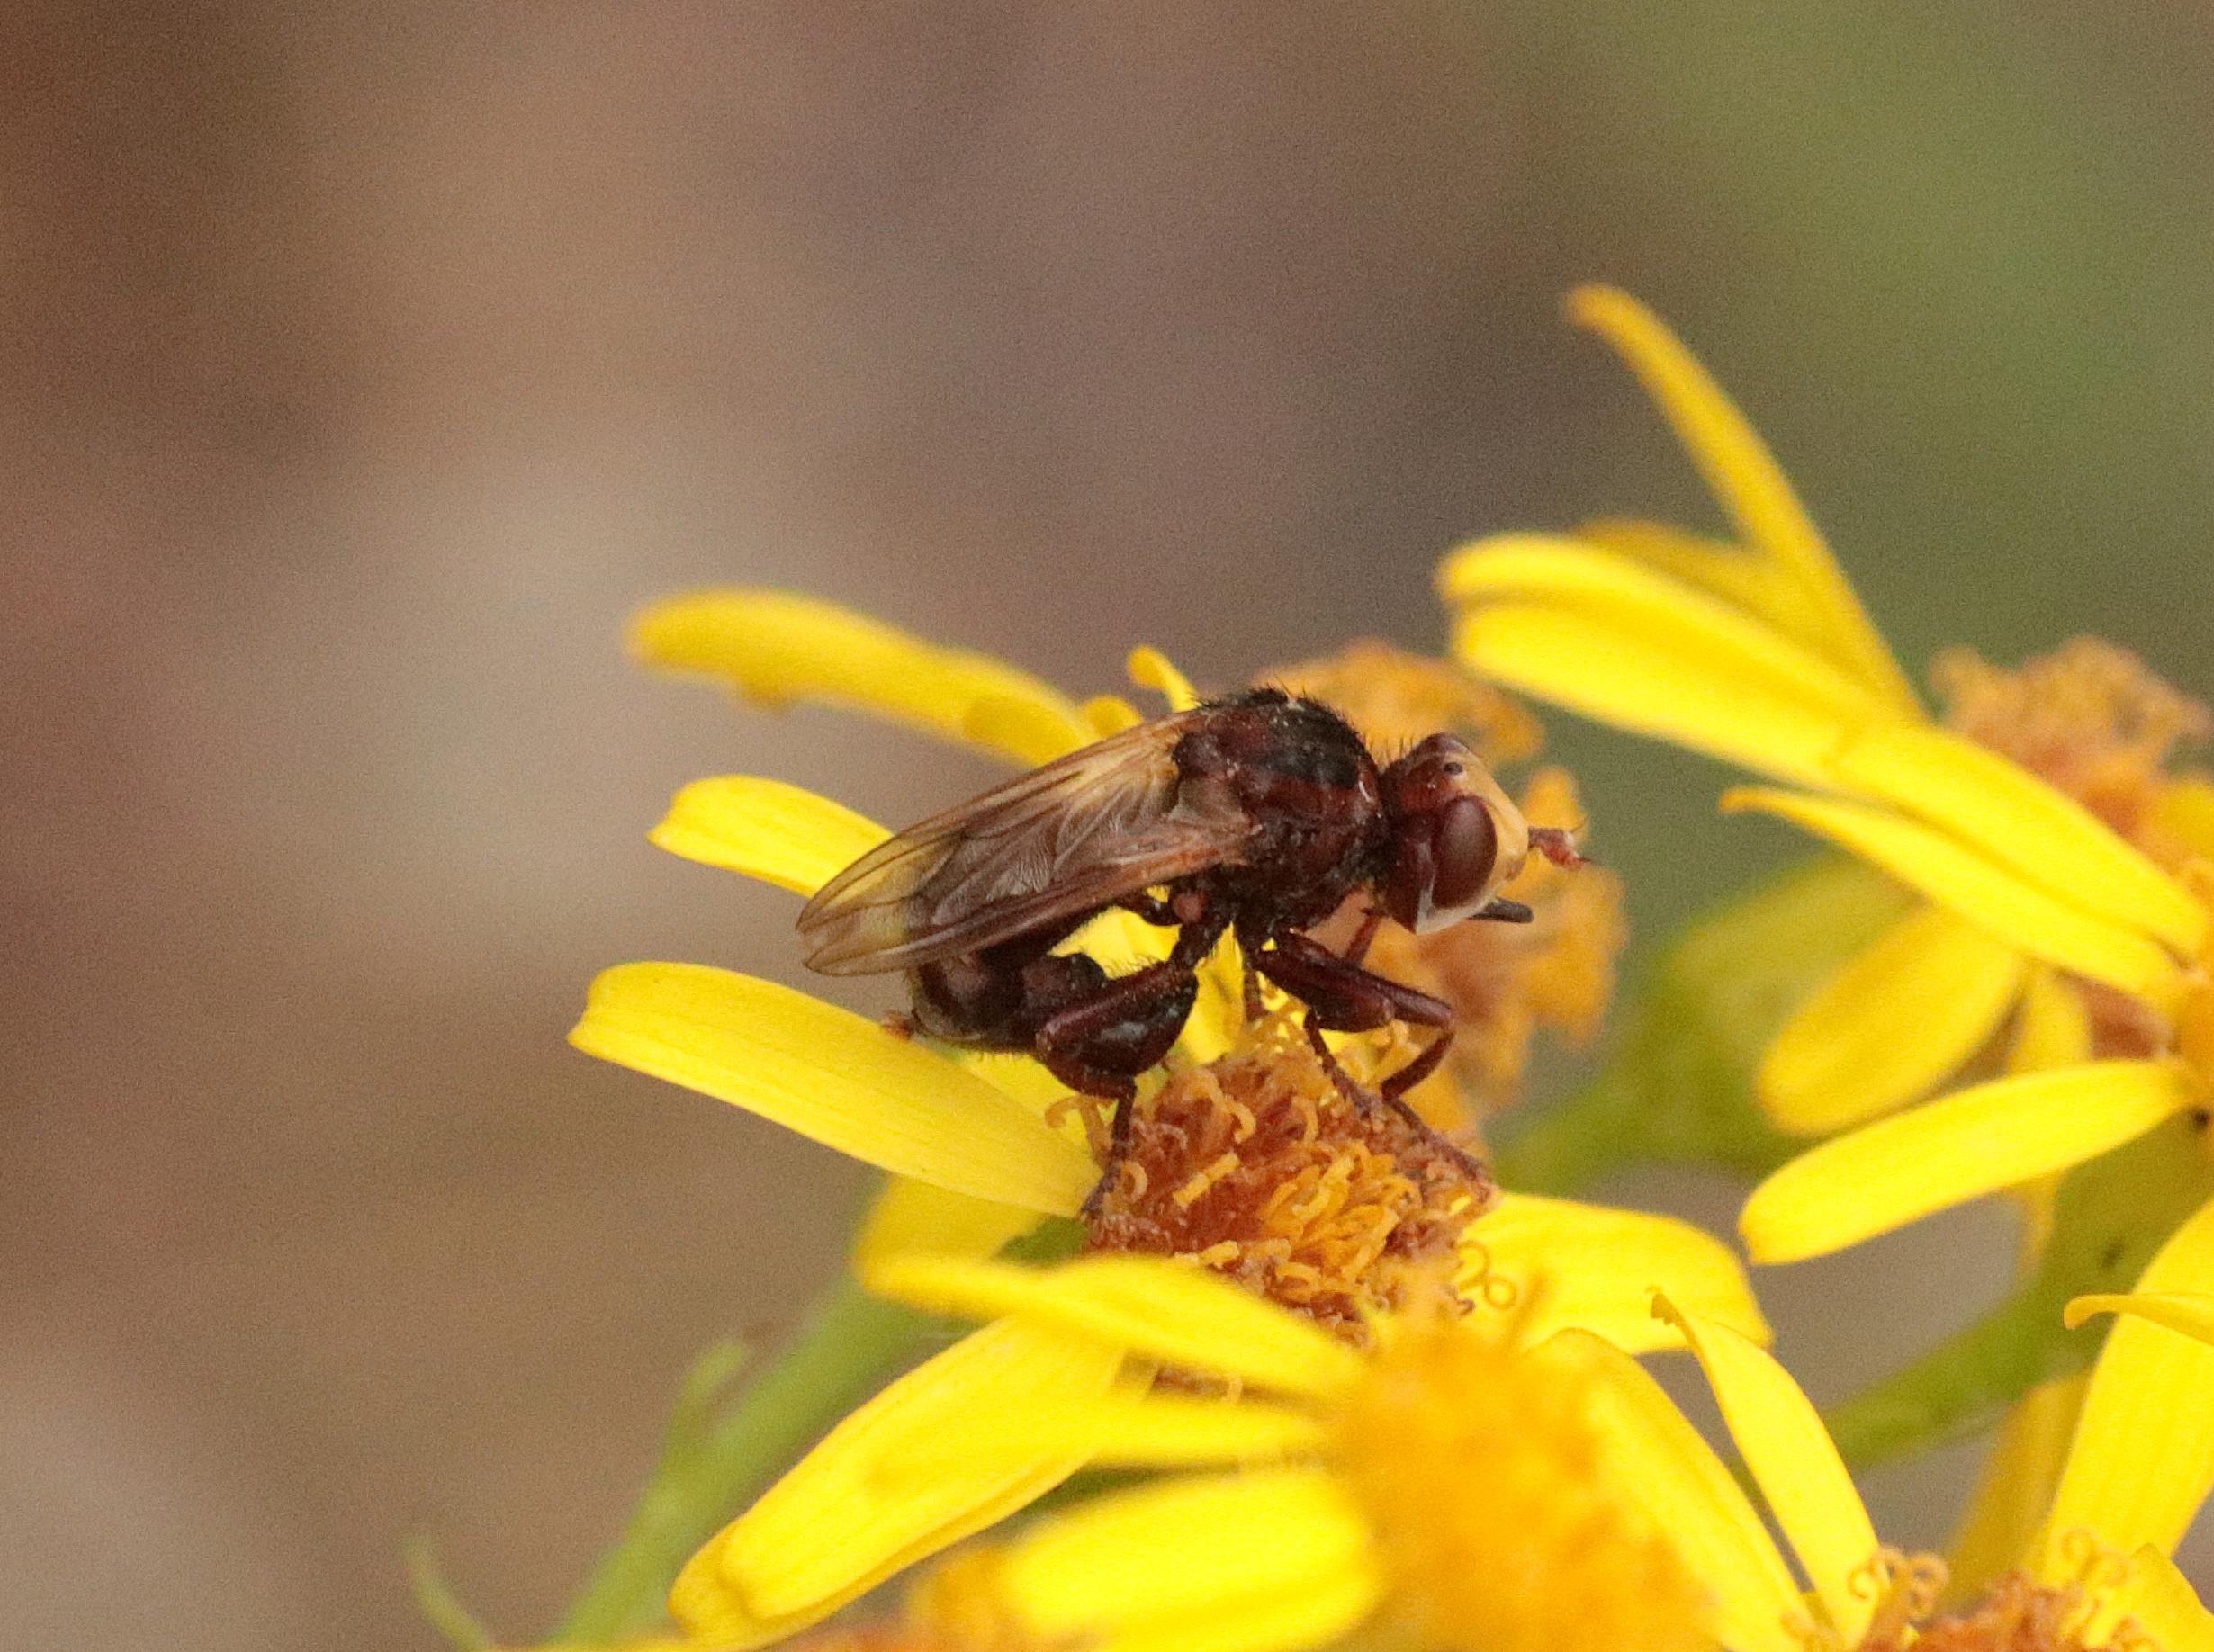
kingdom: Animalia
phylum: Arthropoda
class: Insecta
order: Diptera
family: Conopidae
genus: Sicus
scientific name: Sicus ferrugineus
